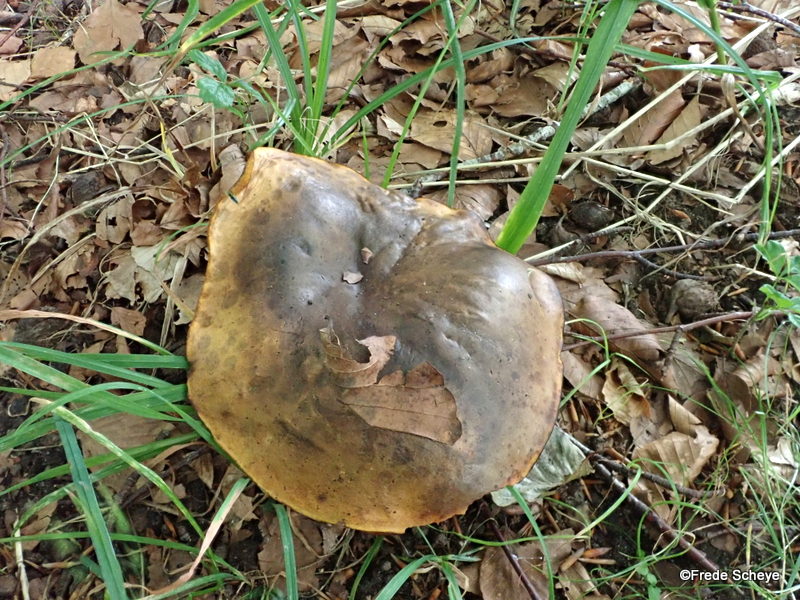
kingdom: Fungi
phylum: Basidiomycota
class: Agaricomycetes
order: Boletales
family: Boletaceae
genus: Neoboletus
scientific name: Neoboletus erythropus
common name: punktstokket indigorørhat
